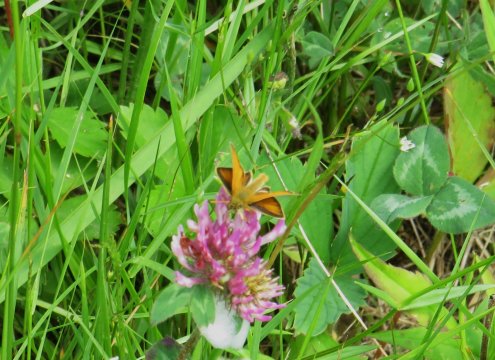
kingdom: Animalia
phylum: Arthropoda
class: Insecta
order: Lepidoptera
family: Hesperiidae
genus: Thymelicus
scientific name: Thymelicus lineola
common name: European Skipper
